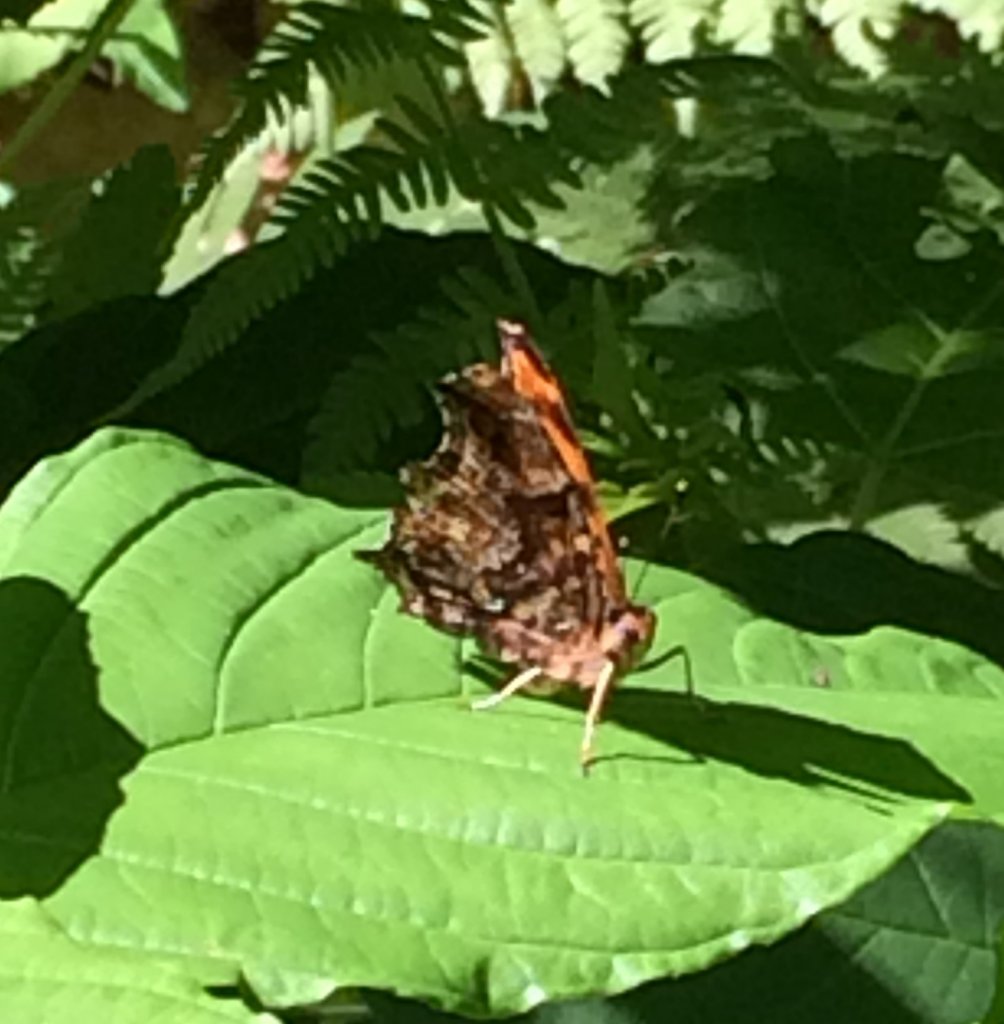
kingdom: Animalia
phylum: Arthropoda
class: Insecta
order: Lepidoptera
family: Nymphalidae
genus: Polygonia
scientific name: Polygonia comma
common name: Eastern Comma
